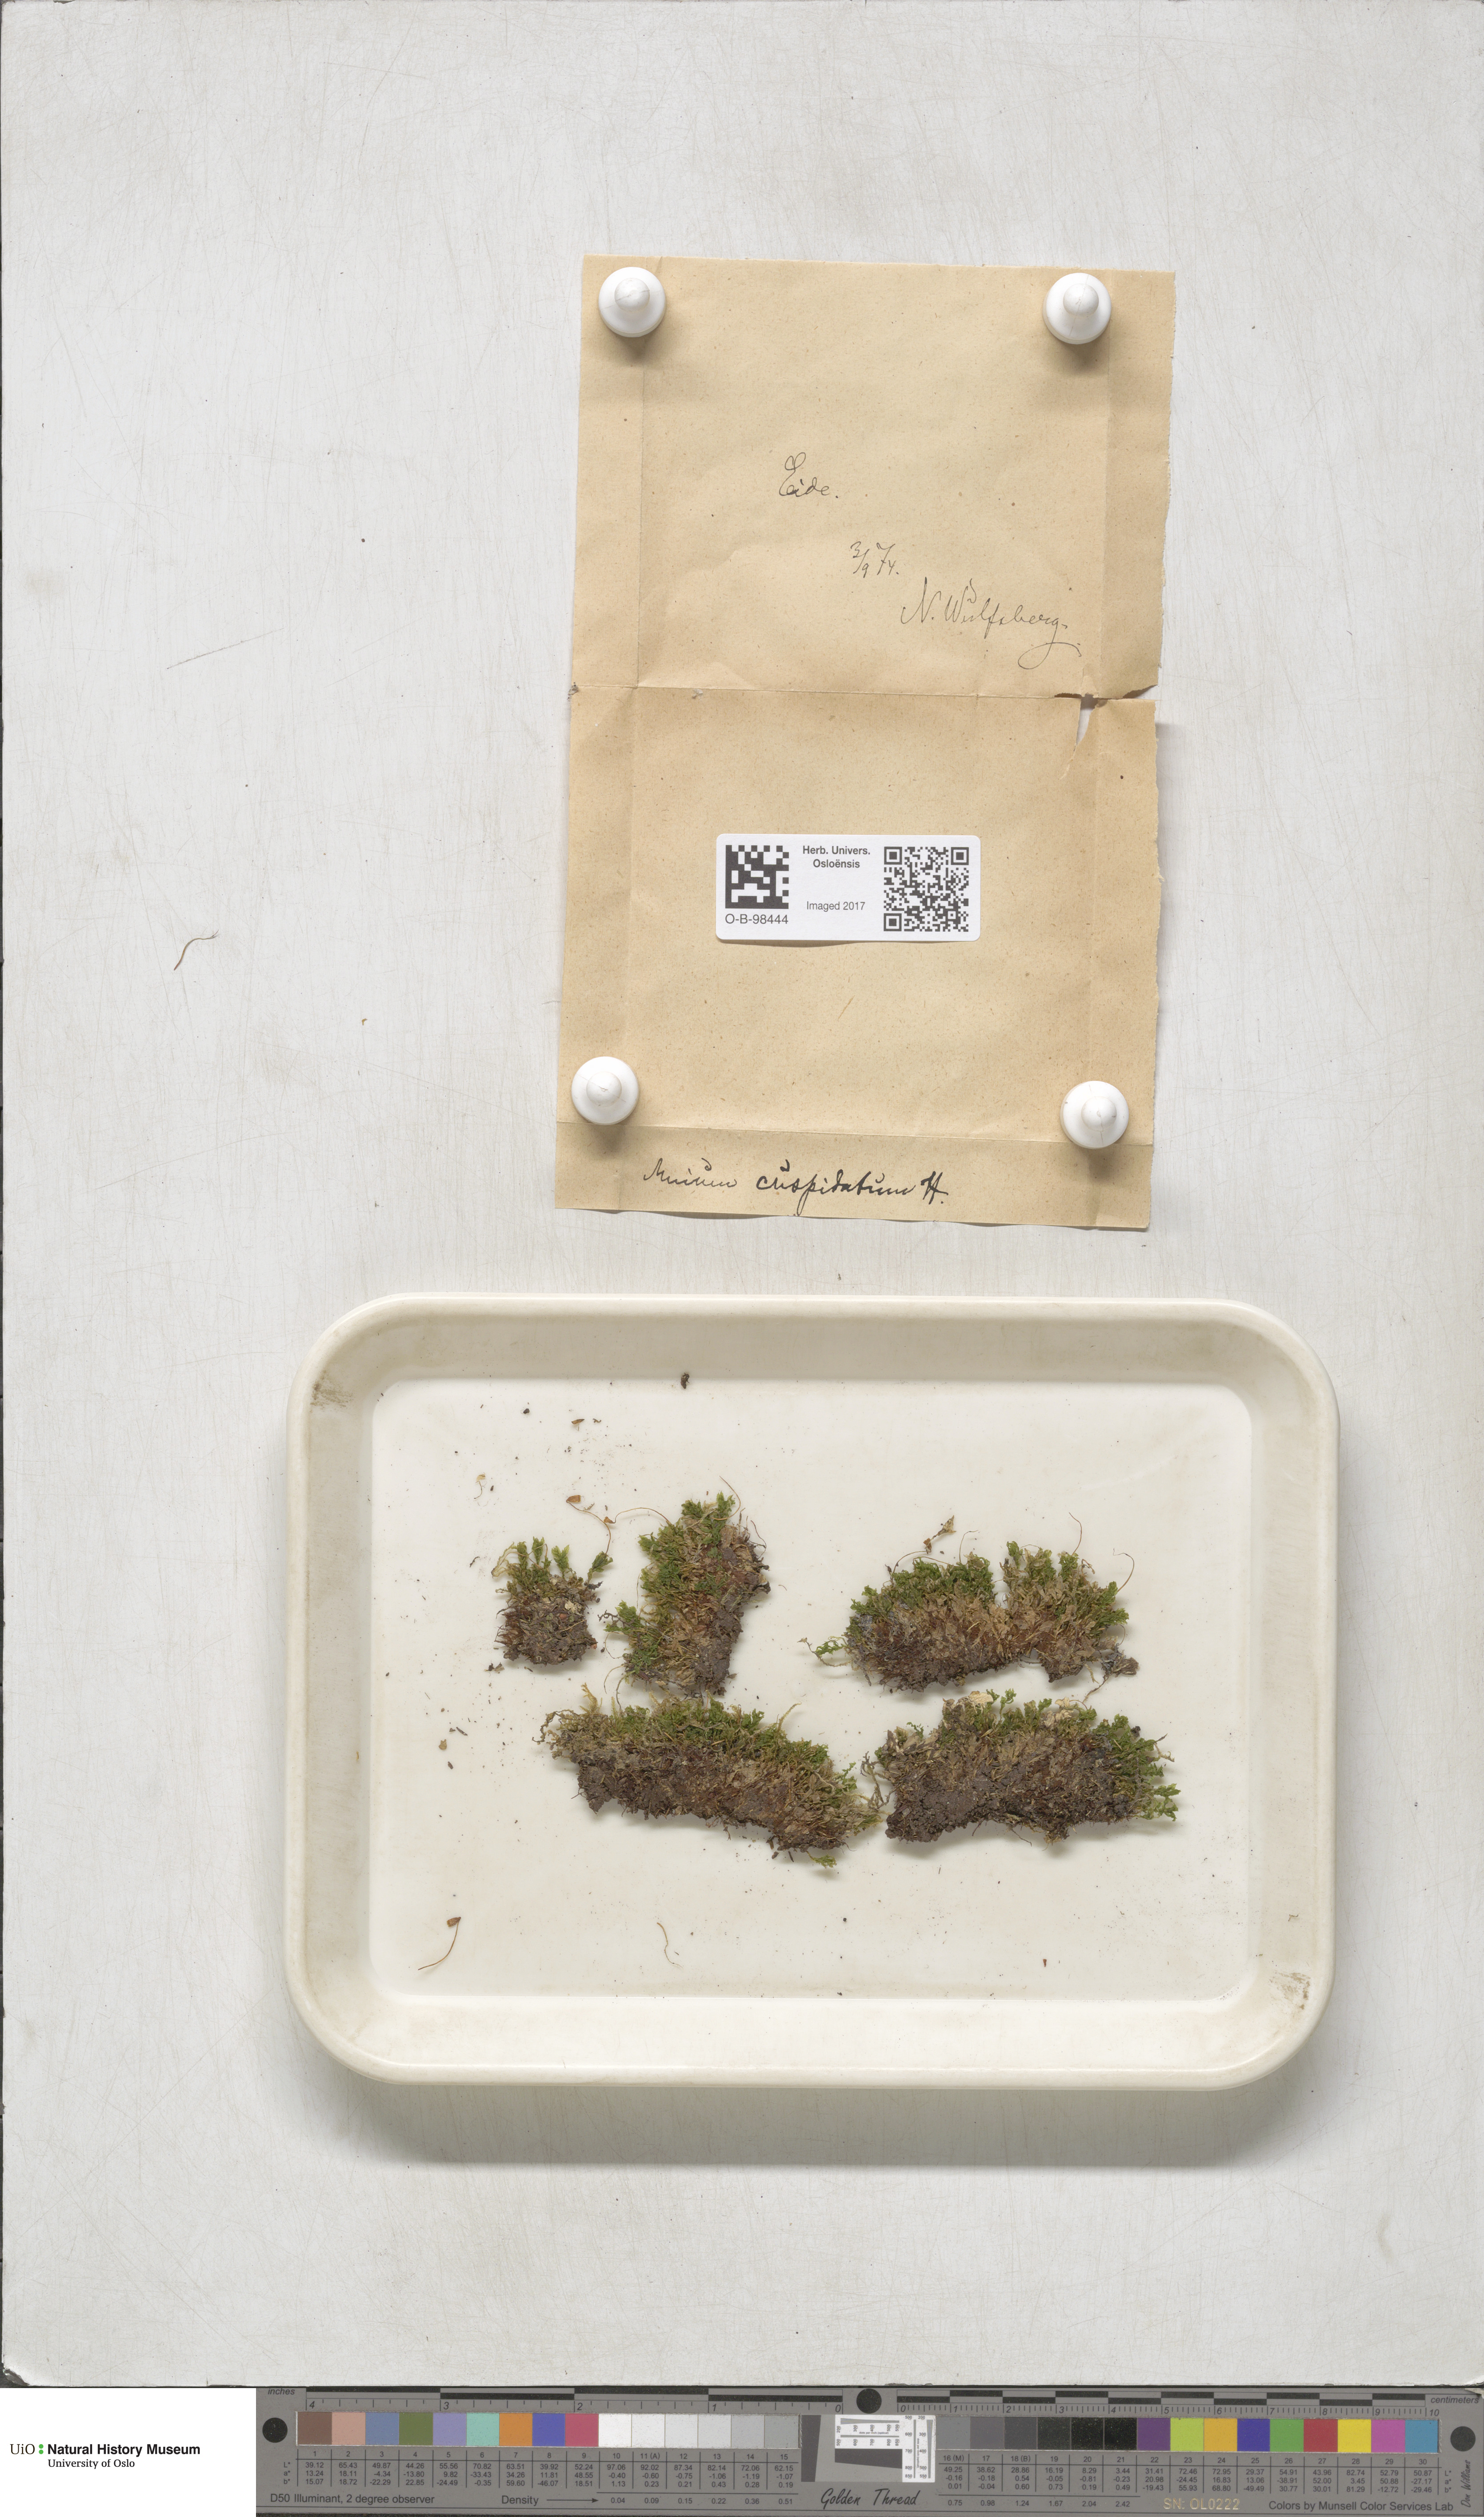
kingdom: Plantae
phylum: Bryophyta
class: Bryopsida
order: Bryales
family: Mniaceae
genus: Plagiomnium
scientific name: Plagiomnium cuspidatum
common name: Woodsy leafy moss
